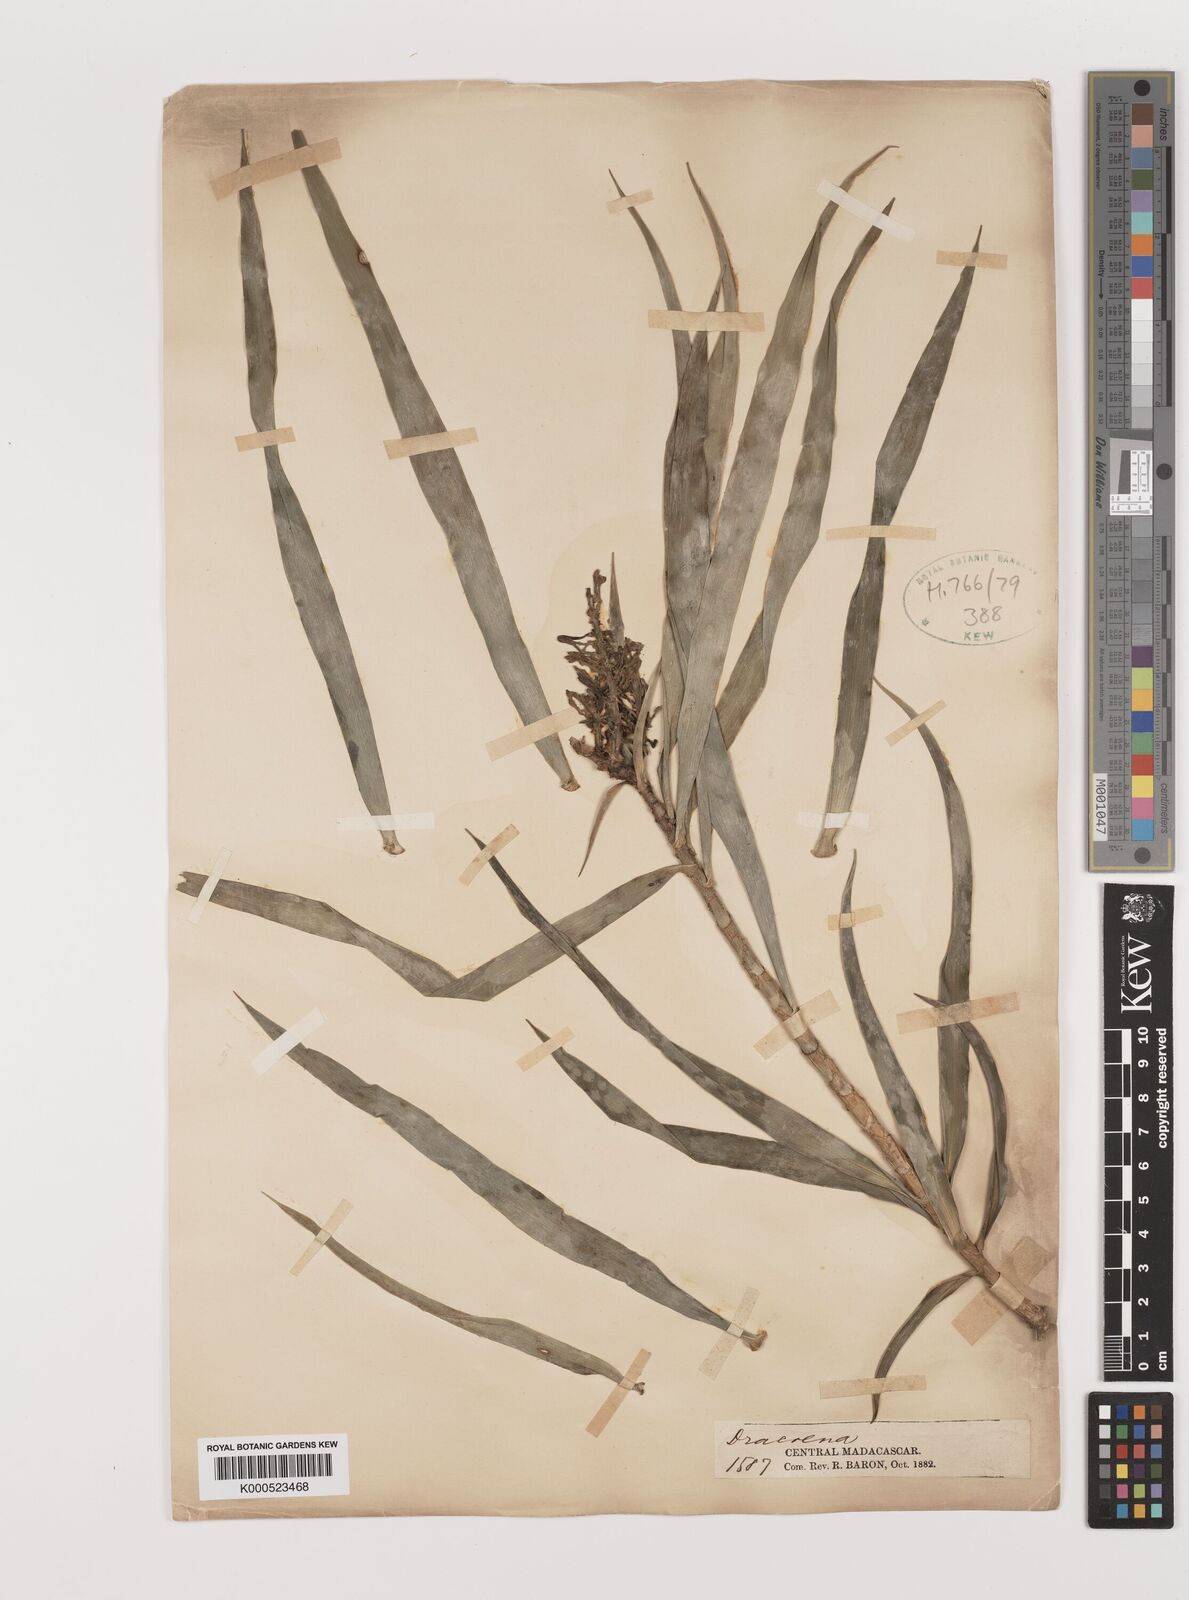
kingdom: Plantae
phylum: Tracheophyta
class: Liliopsida
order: Asparagales
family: Asparagaceae
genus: Dracaena
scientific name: Dracaena
